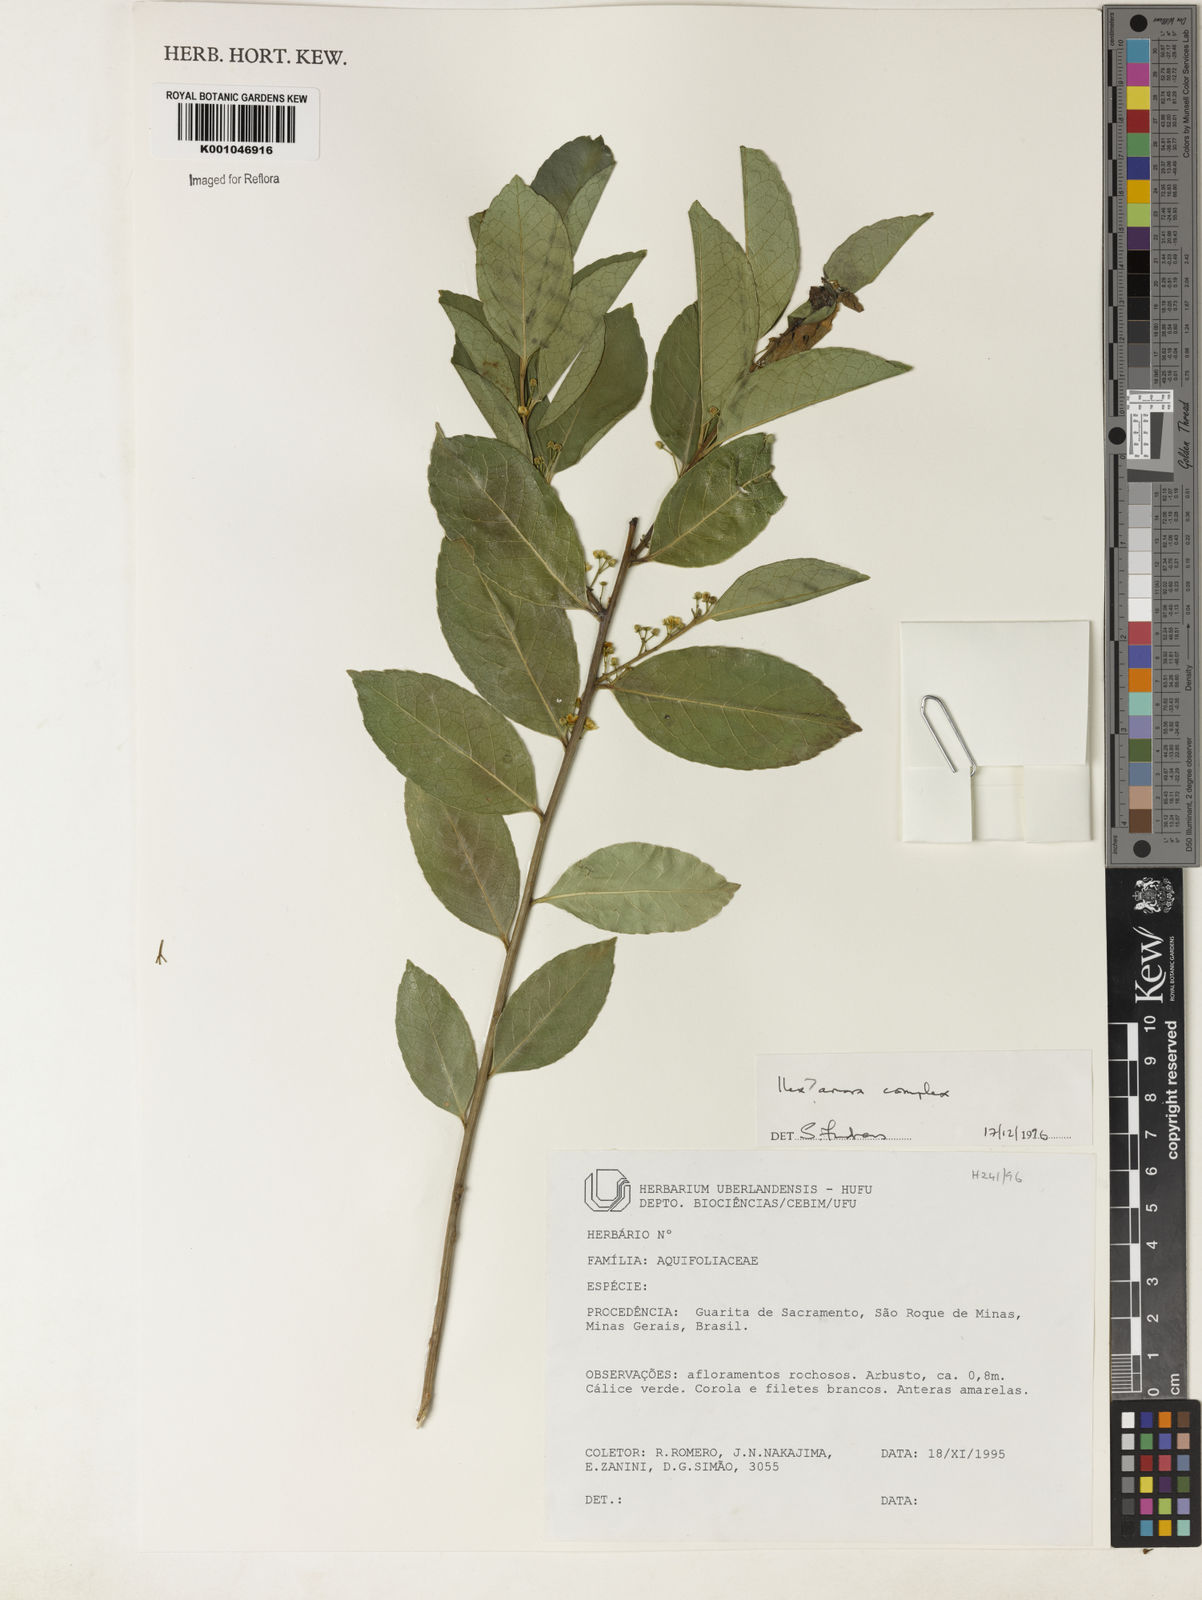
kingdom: Plantae
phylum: Tracheophyta
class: Magnoliopsida
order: Aquifoliales
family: Aquifoliaceae
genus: Ilex
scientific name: Ilex
